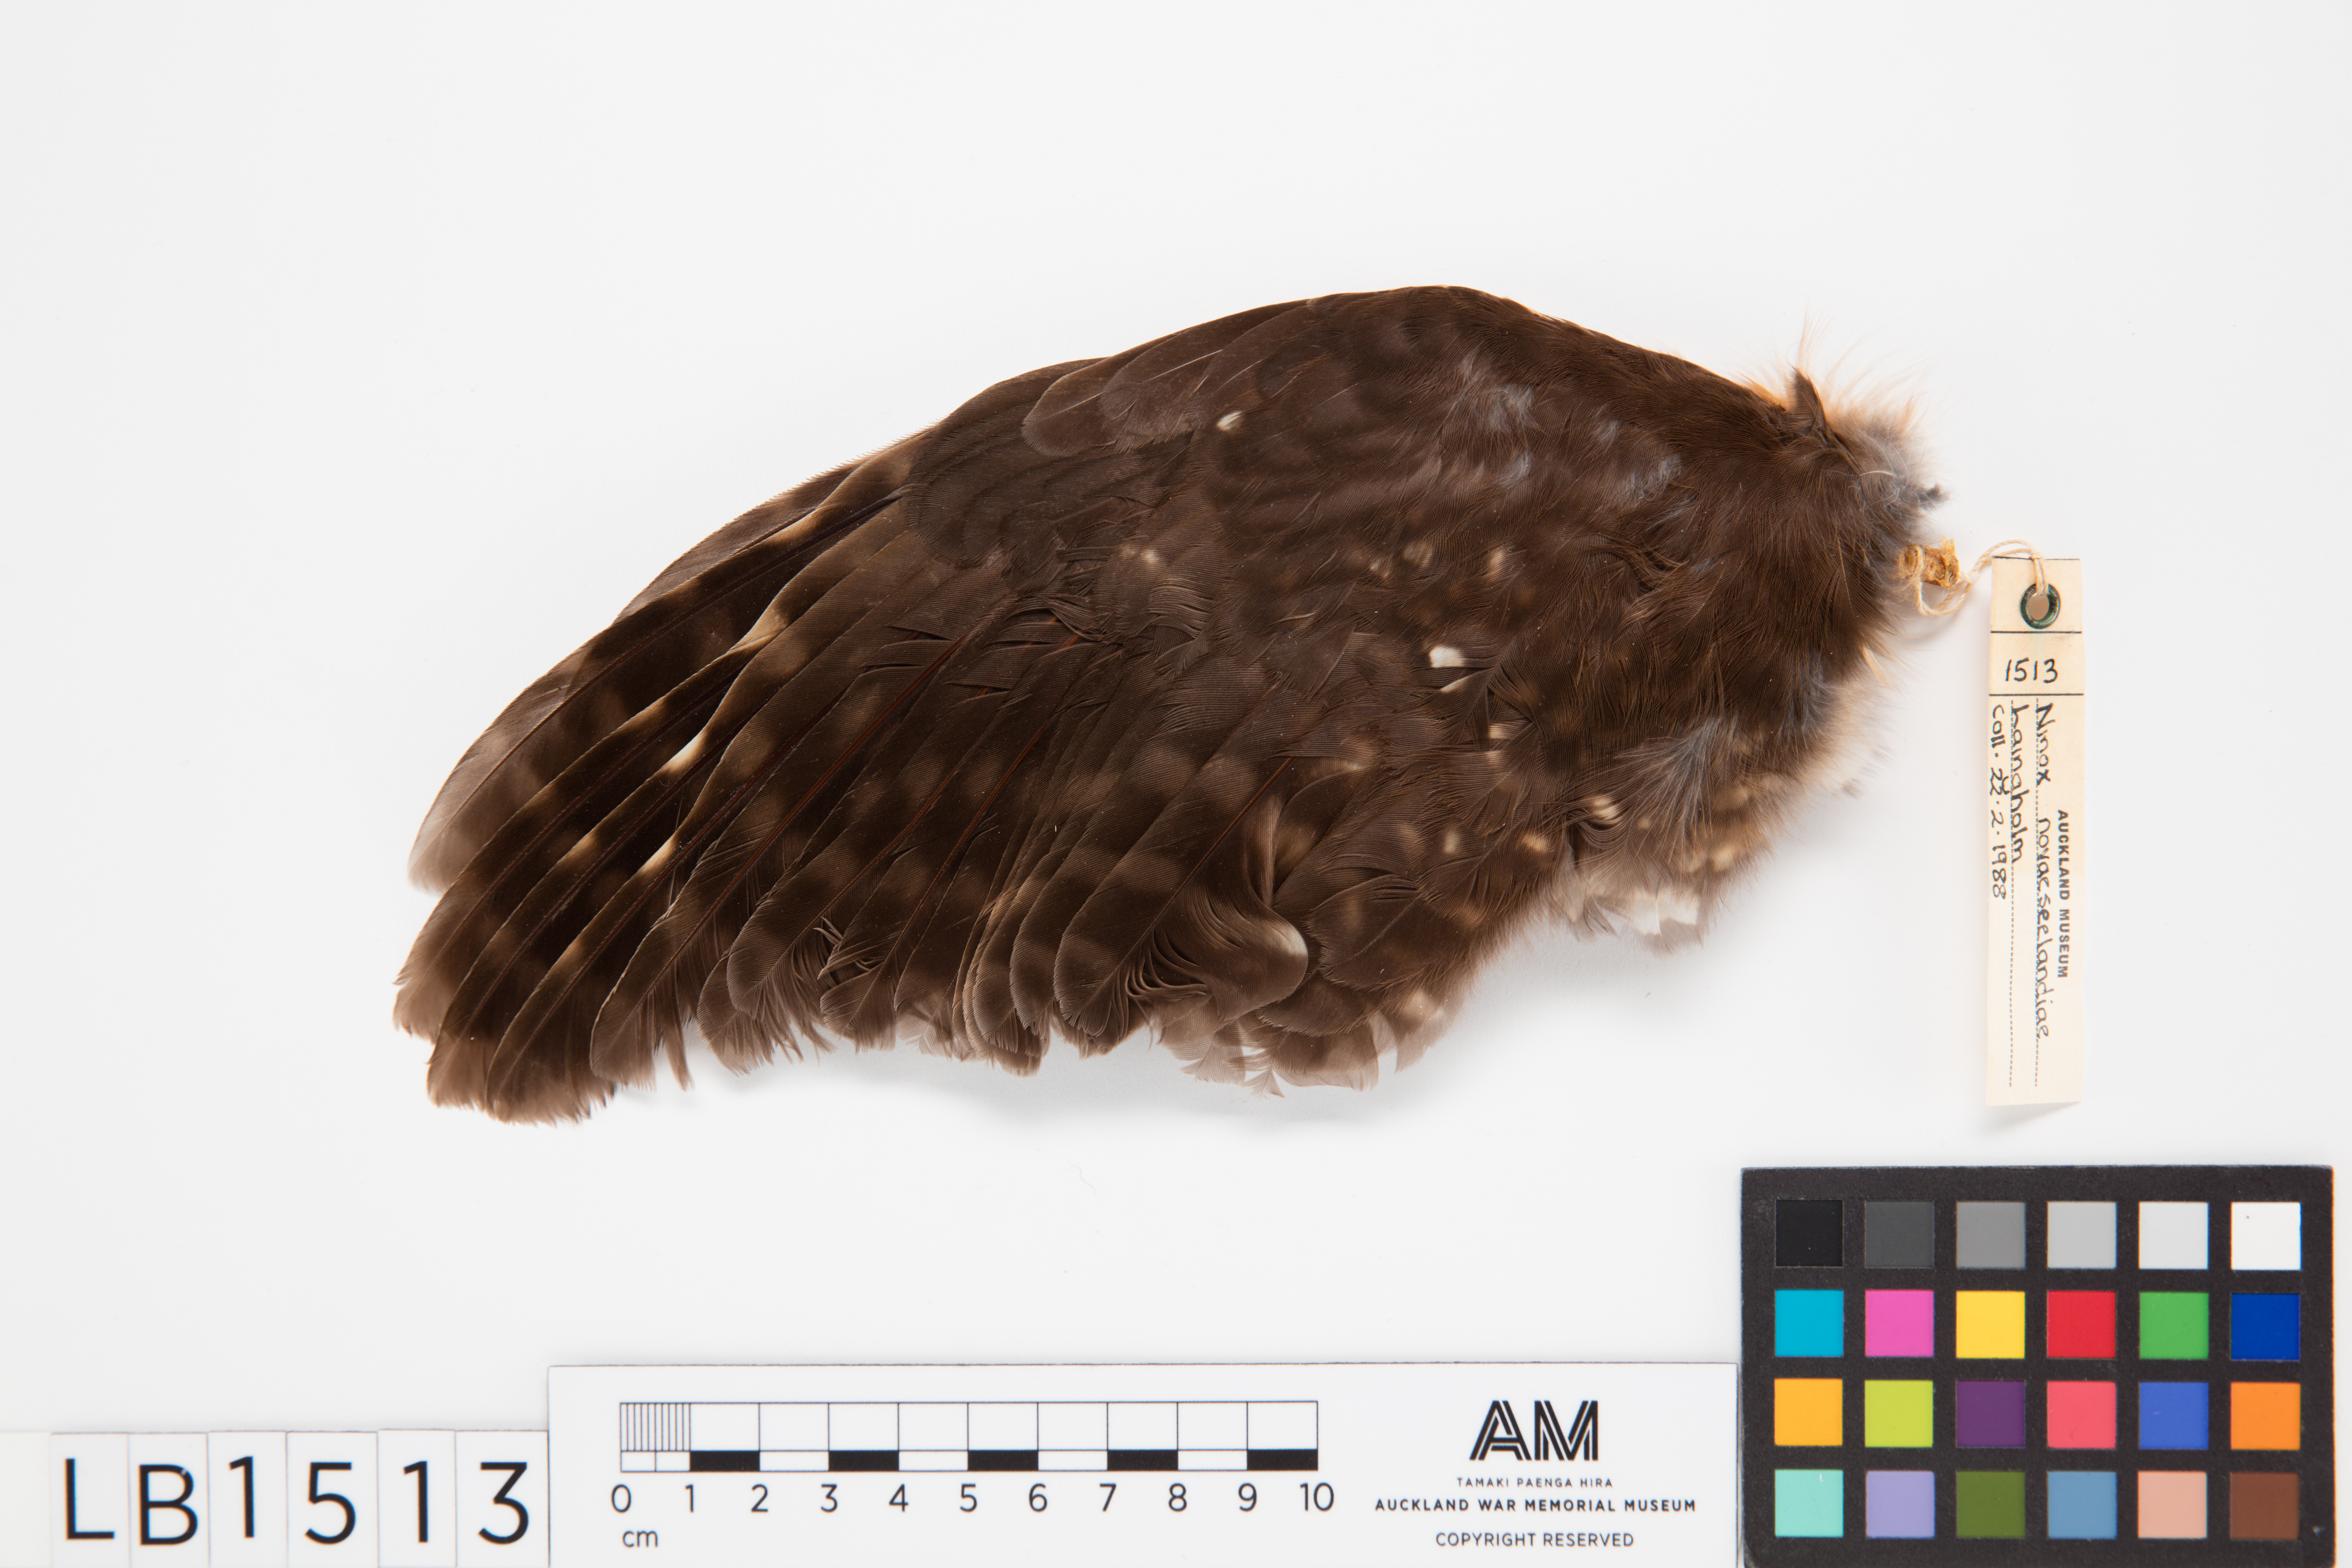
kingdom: Animalia
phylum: Chordata
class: Aves
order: Strigiformes
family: Strigidae
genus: Ninox
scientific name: Ninox novaeseelandiae
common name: Morepork
